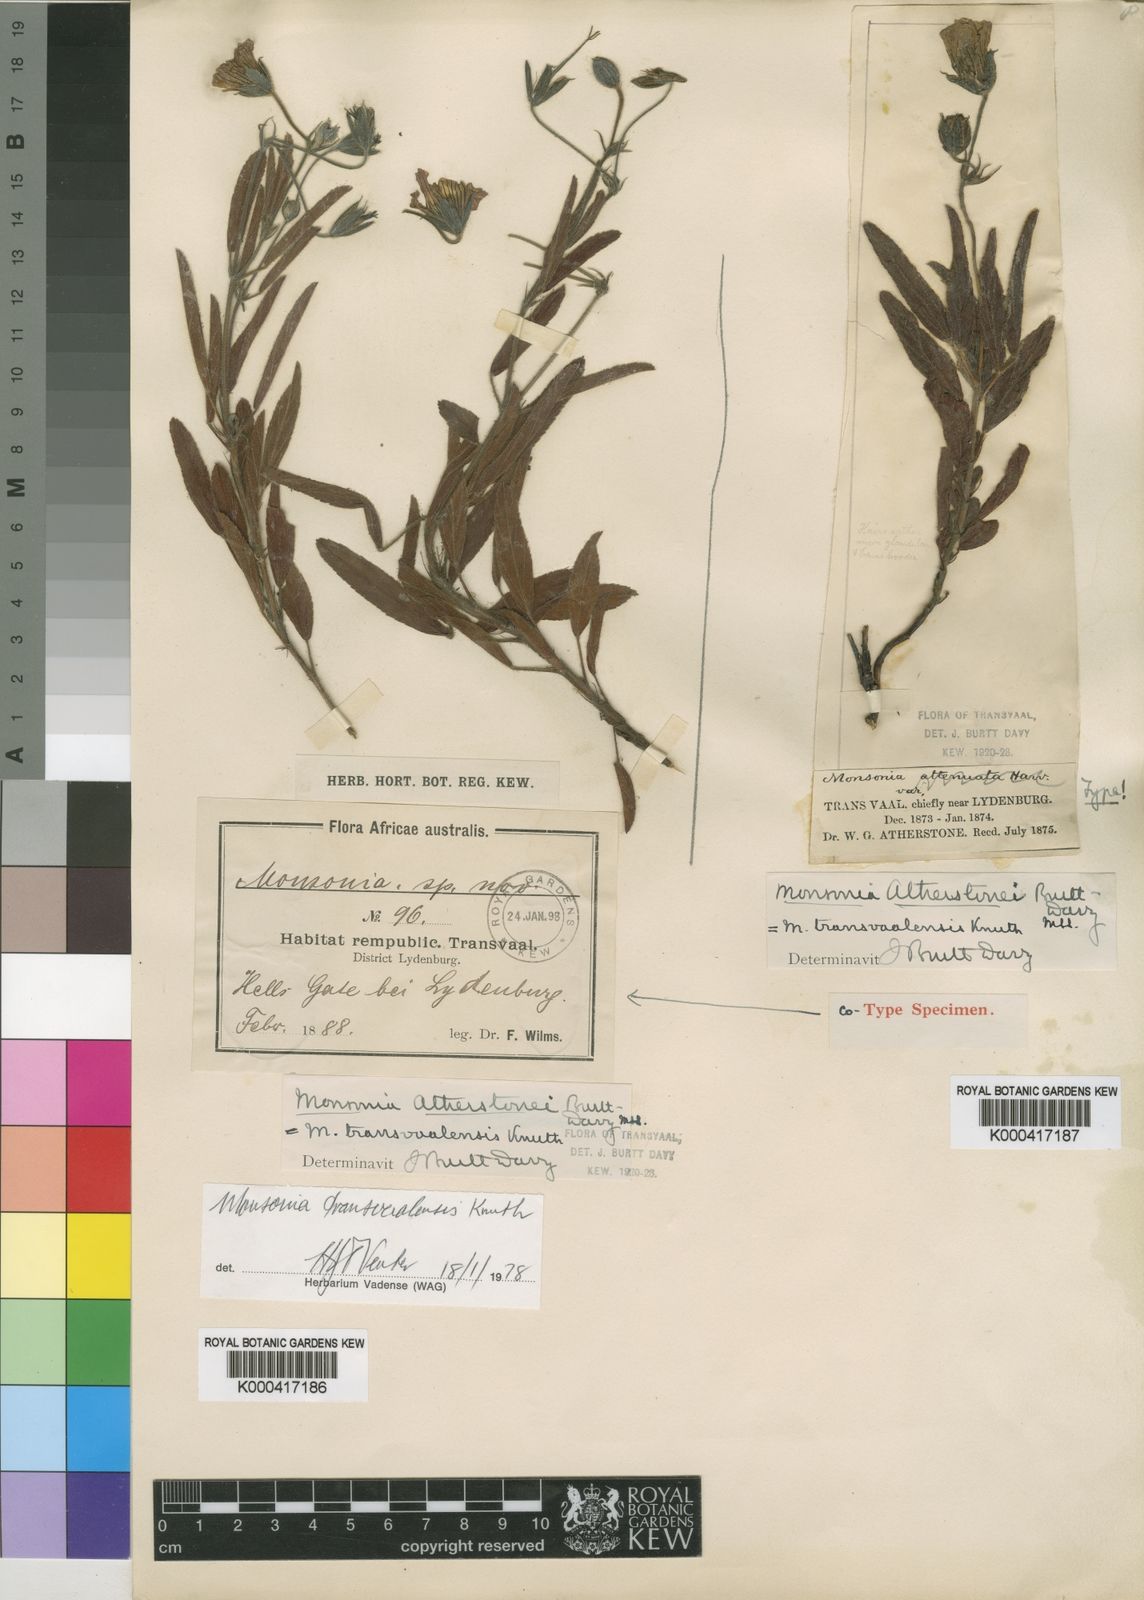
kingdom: Plantae
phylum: Tracheophyta
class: Magnoliopsida
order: Geraniales
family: Geraniaceae
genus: Monsonia
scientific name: Monsonia transvaalensis
